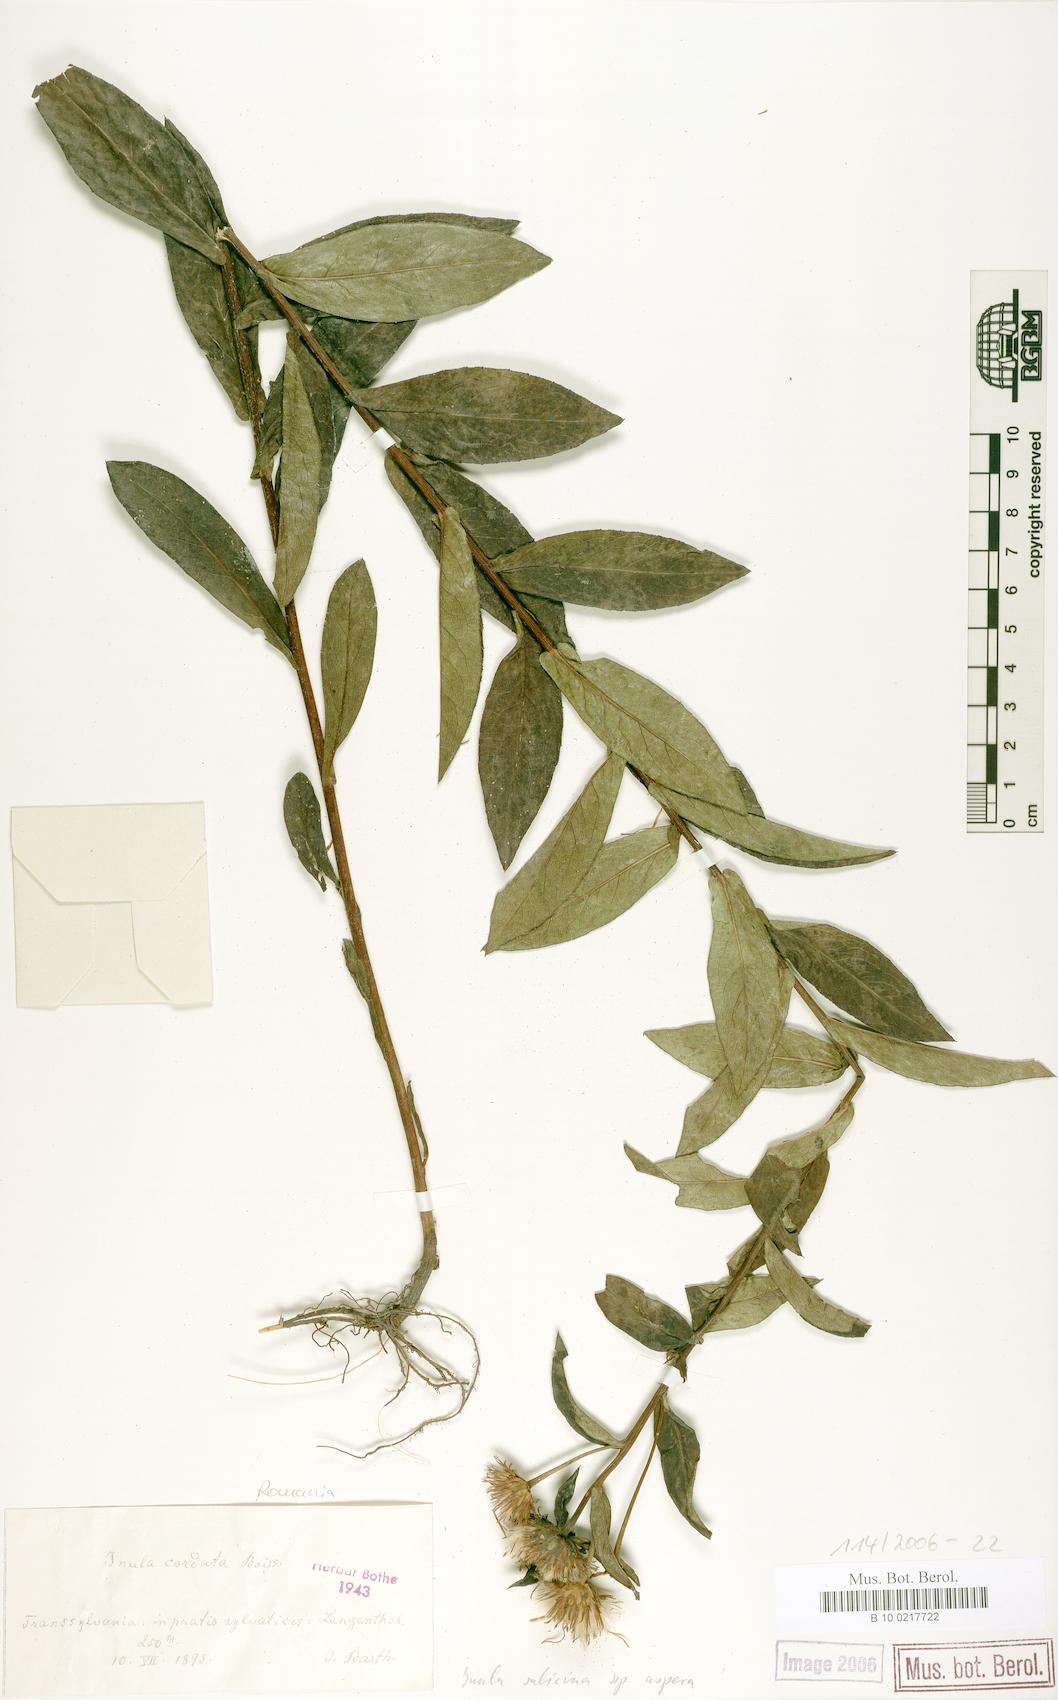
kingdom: Plantae
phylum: Tracheophyta
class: Magnoliopsida
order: Asterales
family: Asteraceae
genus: Pentanema
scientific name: Pentanema salicinum
